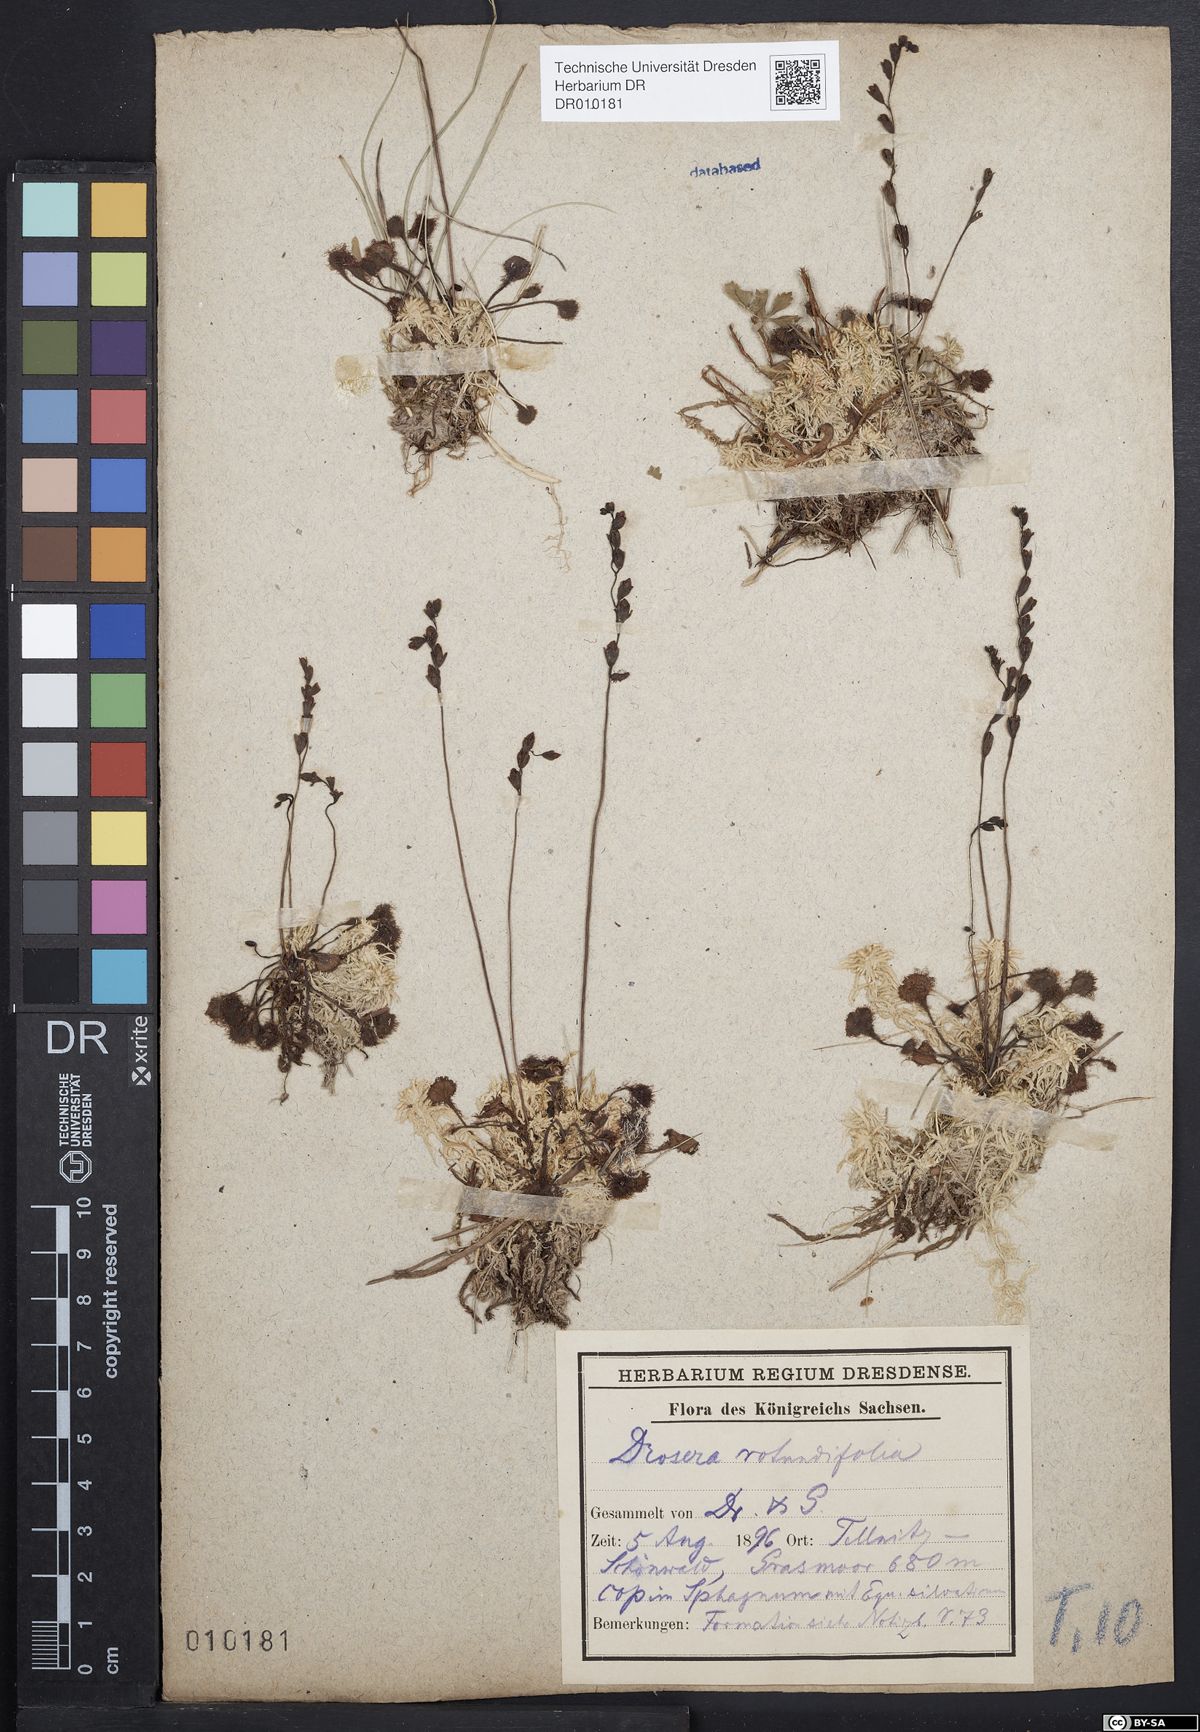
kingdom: Plantae
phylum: Tracheophyta
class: Magnoliopsida
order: Caryophyllales
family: Droseraceae
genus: Drosera
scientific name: Drosera rotundifolia
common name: Round-leaved sundew
